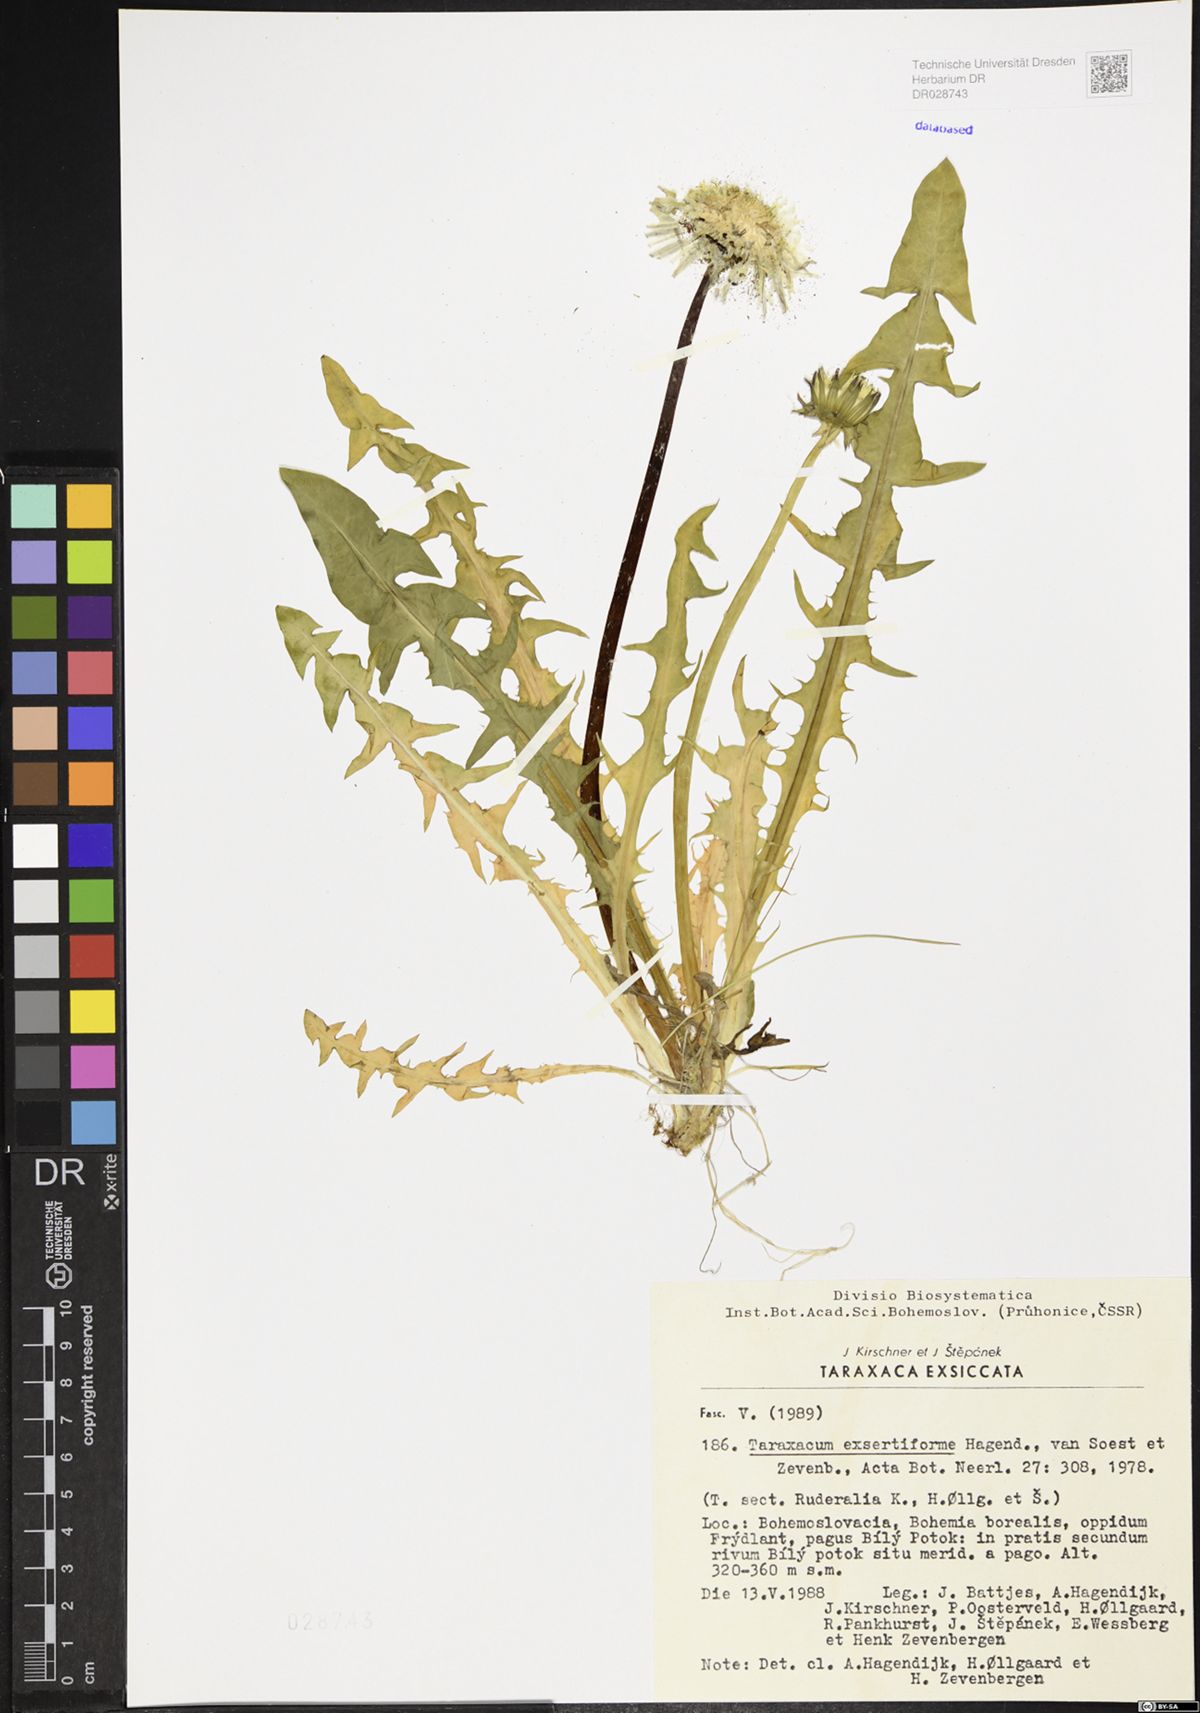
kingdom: Plantae
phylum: Tracheophyta
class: Magnoliopsida
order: Asterales
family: Asteraceae
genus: Taraxacum
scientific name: Taraxacum exsertiforme
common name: Erect-bracted dandelion
